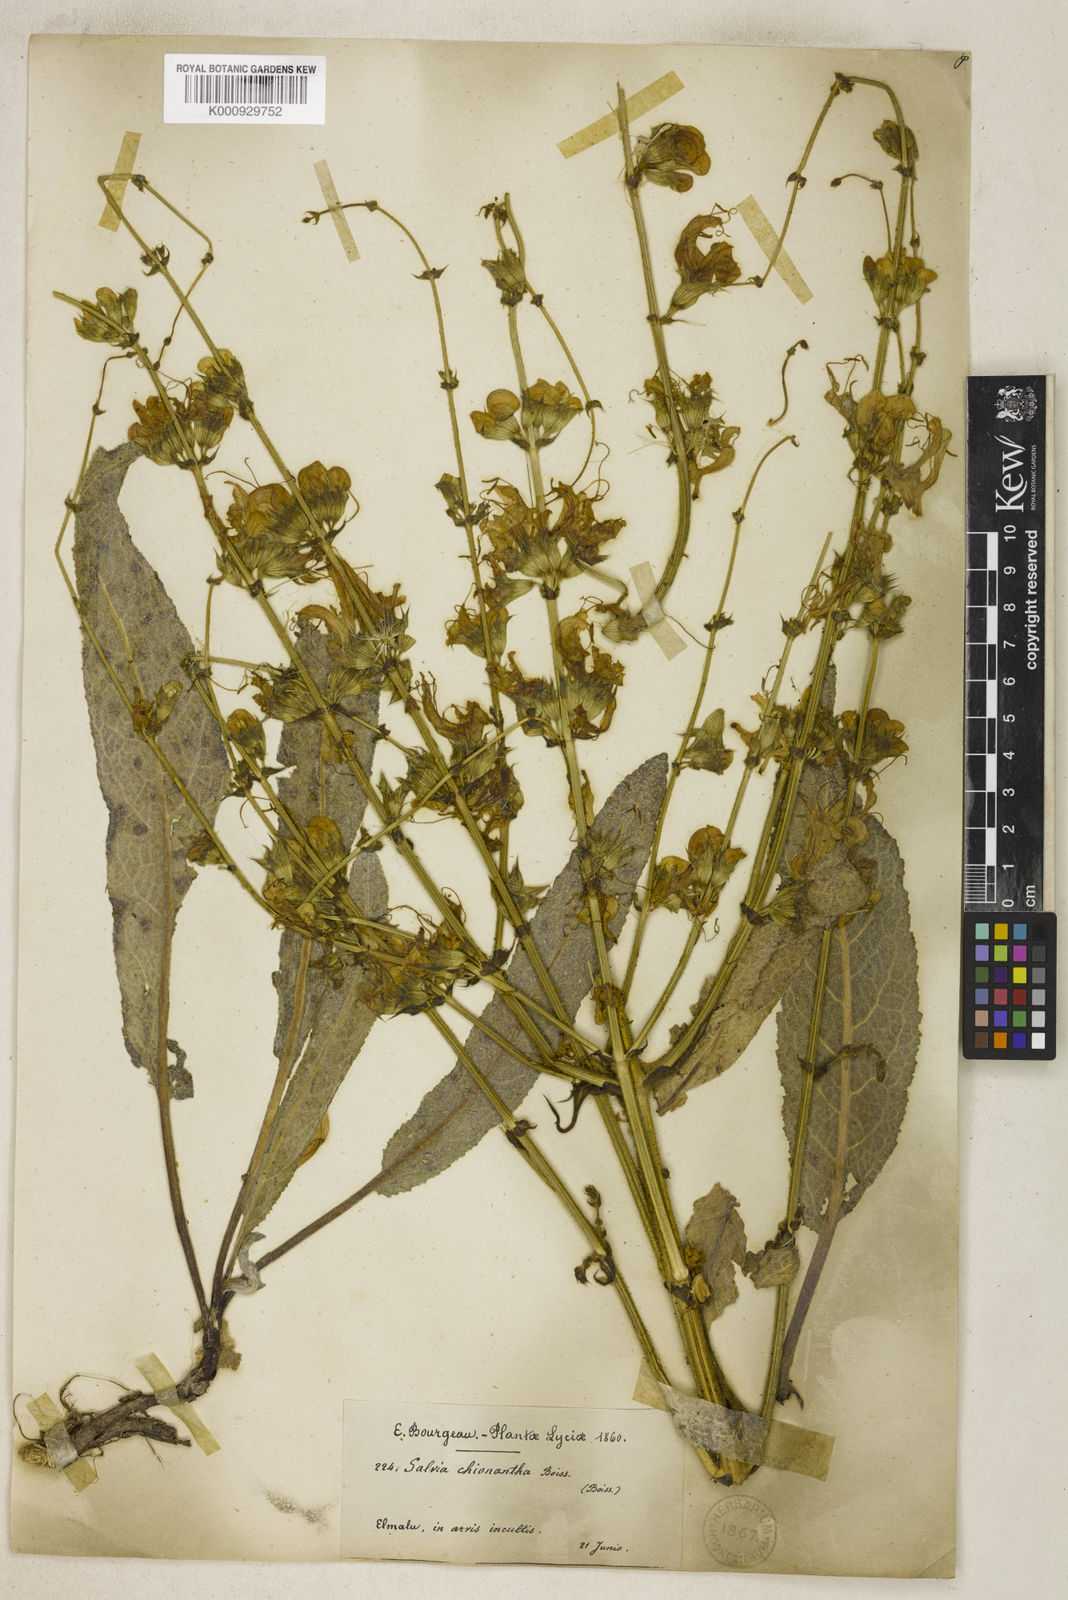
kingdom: Plantae
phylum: Tracheophyta
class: Magnoliopsida
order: Lamiales
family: Lamiaceae
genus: Salvia
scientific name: Salvia chionantha
